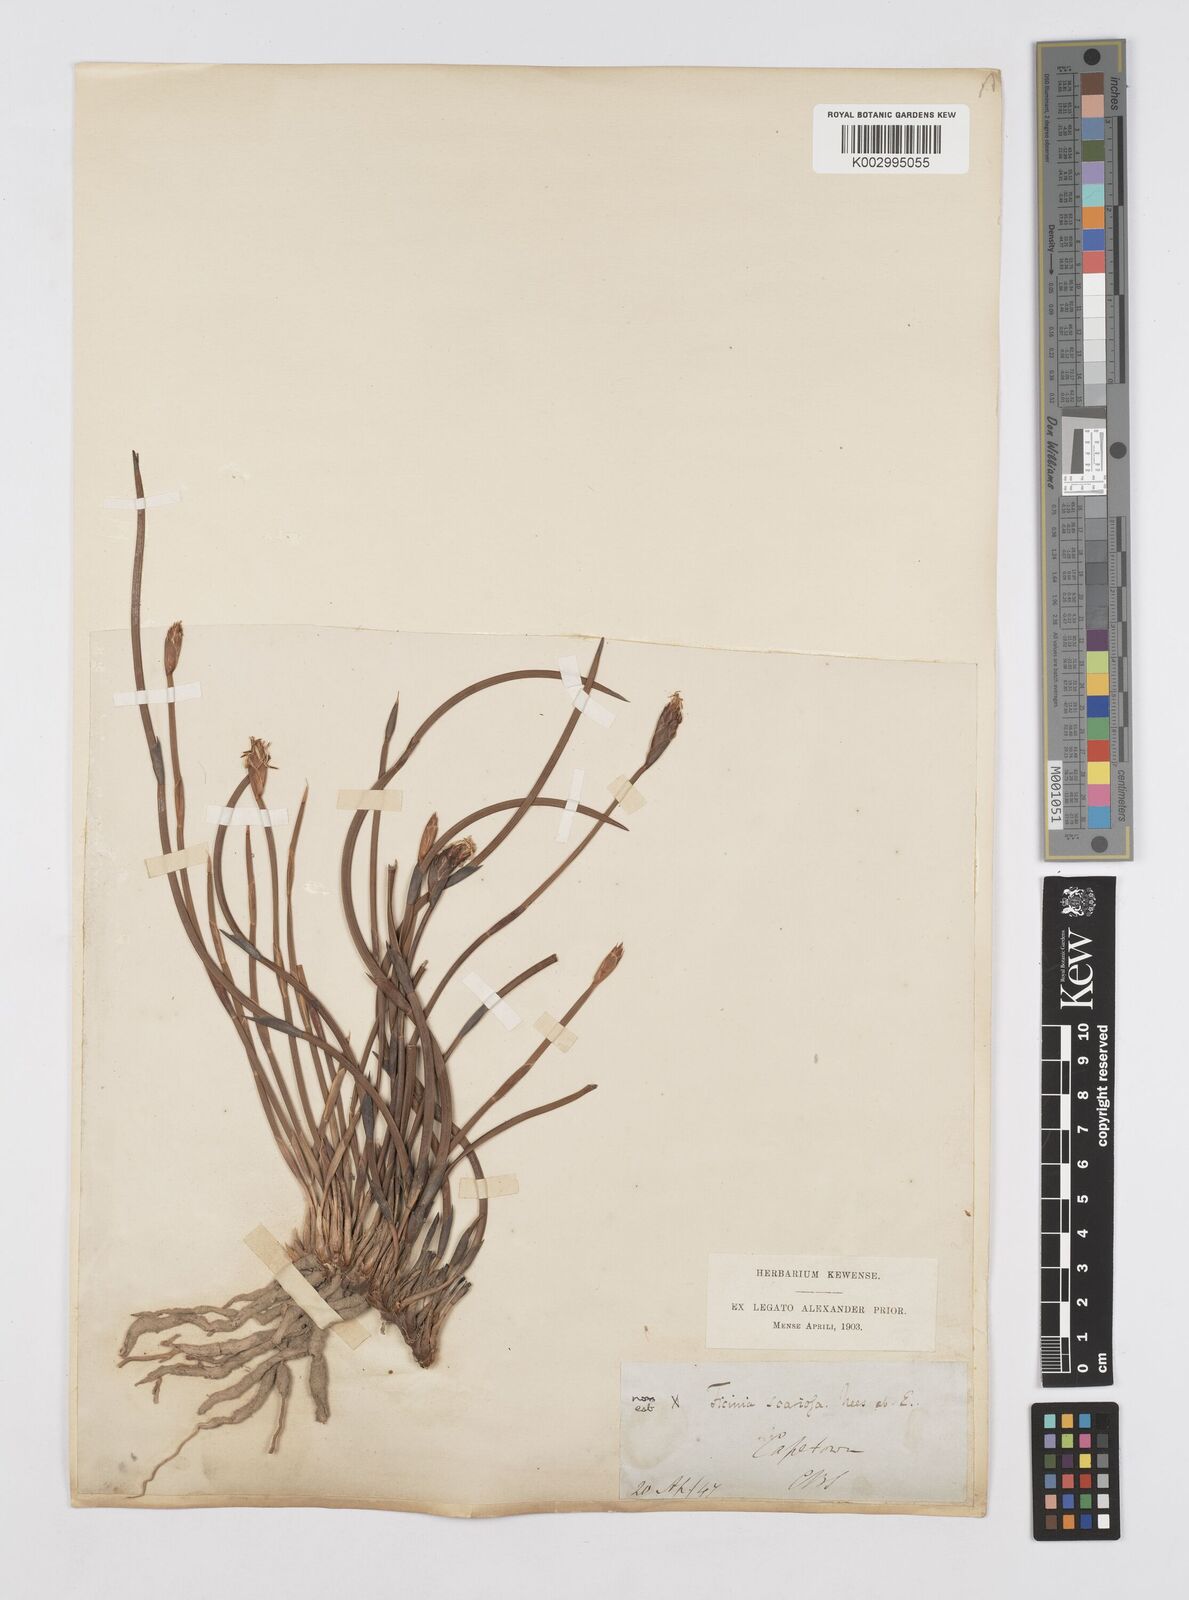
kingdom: Plantae
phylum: Tracheophyta
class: Liliopsida
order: Poales
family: Restionaceae
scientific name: Restionaceae
